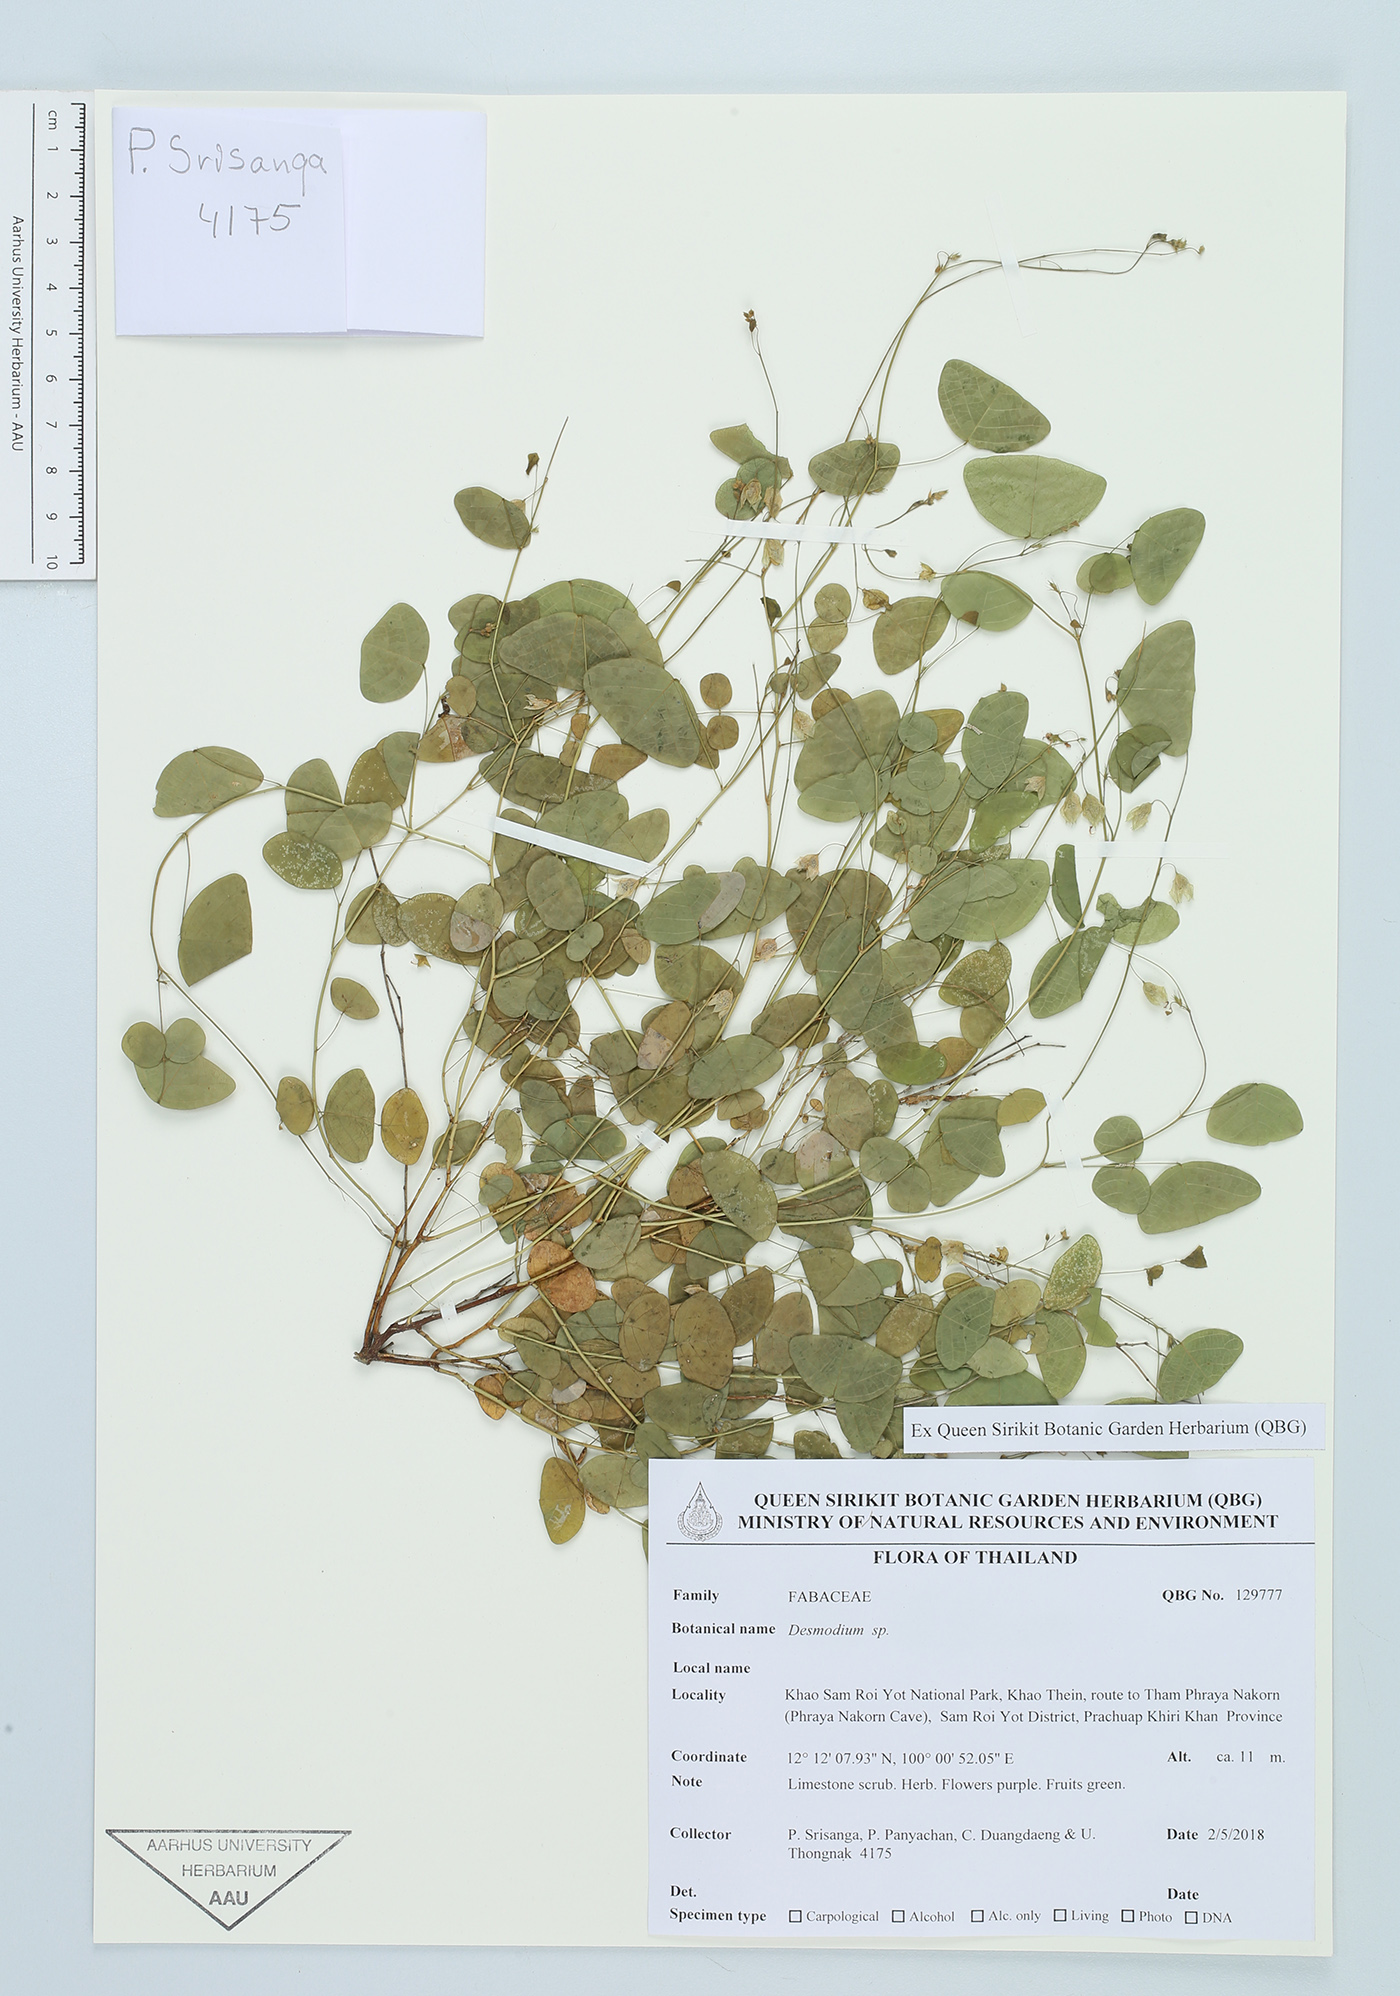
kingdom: Plantae
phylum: Tracheophyta
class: Magnoliopsida
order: Fabales
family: Fabaceae
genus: Desmodium
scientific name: Desmodium
